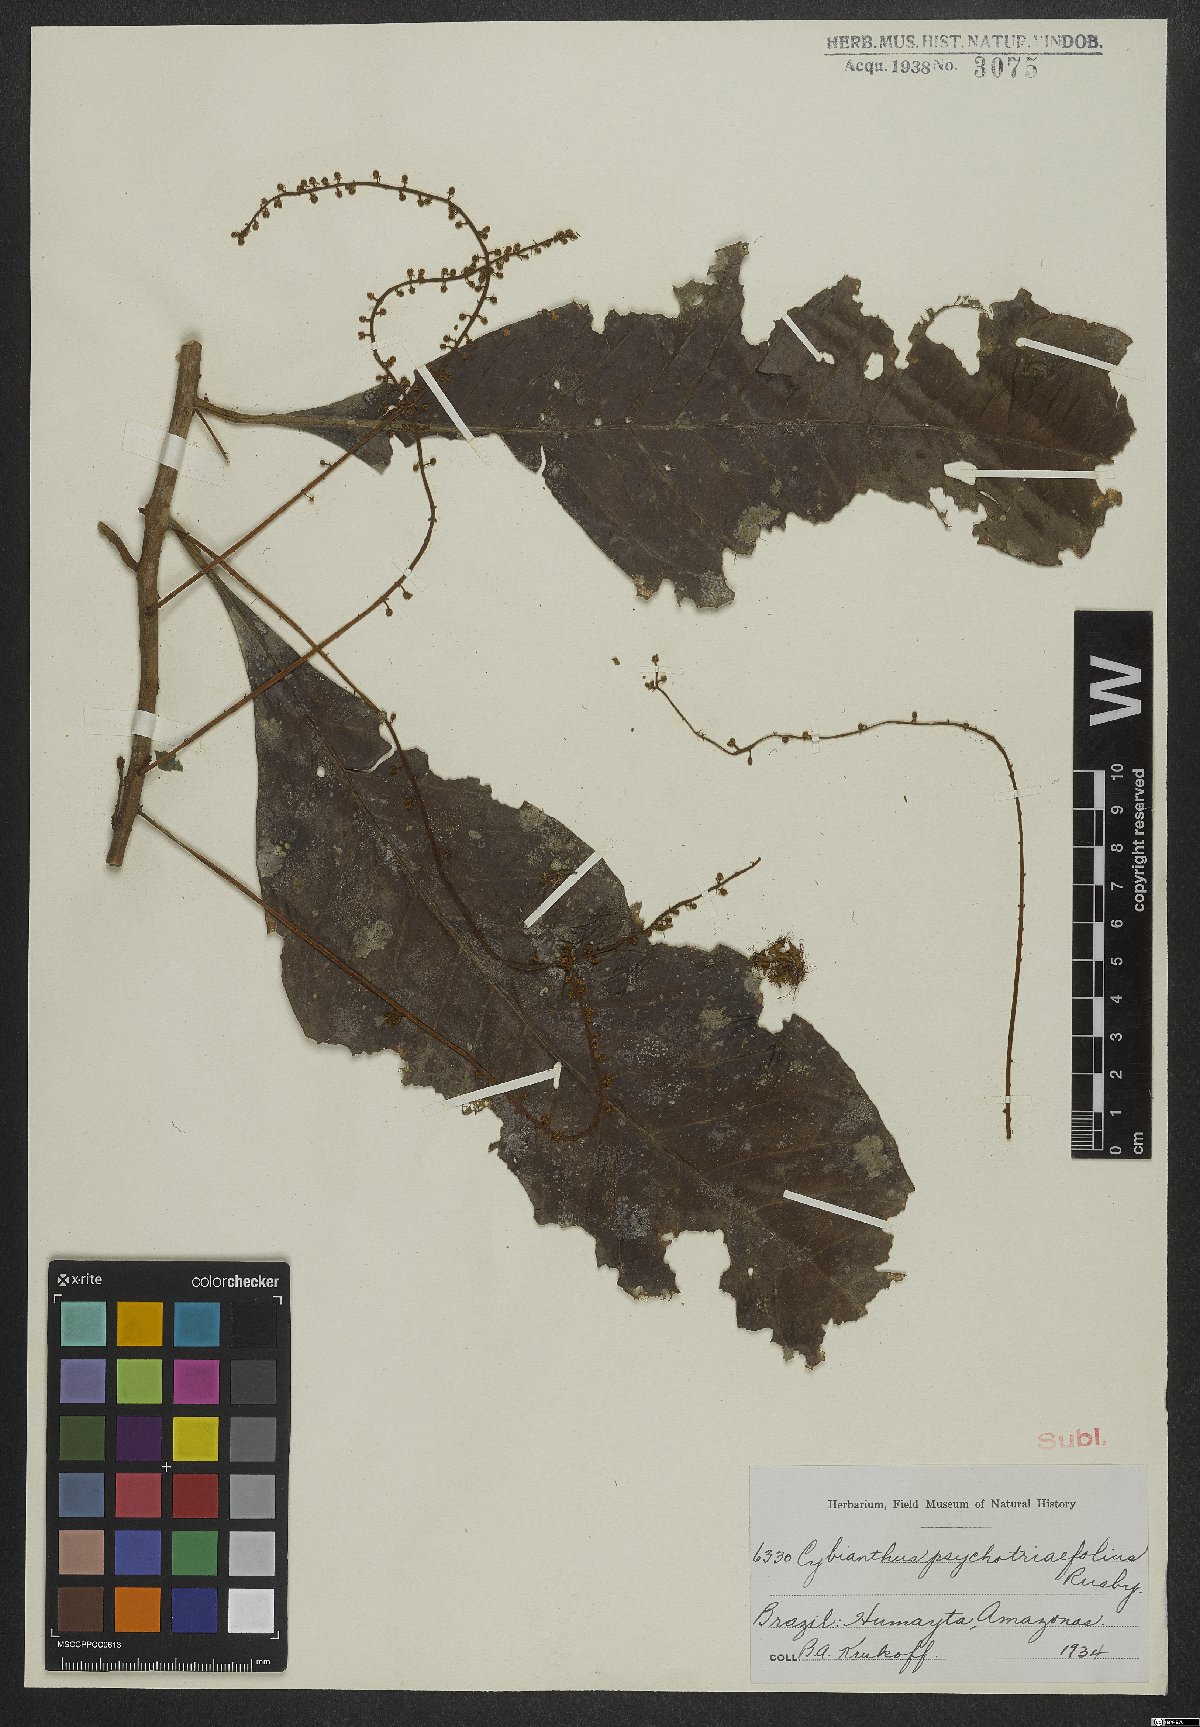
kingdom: Plantae
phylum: Tracheophyta
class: Magnoliopsida
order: Ericales
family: Primulaceae
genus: Cybianthus
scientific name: Cybianthus psychotriifolius
